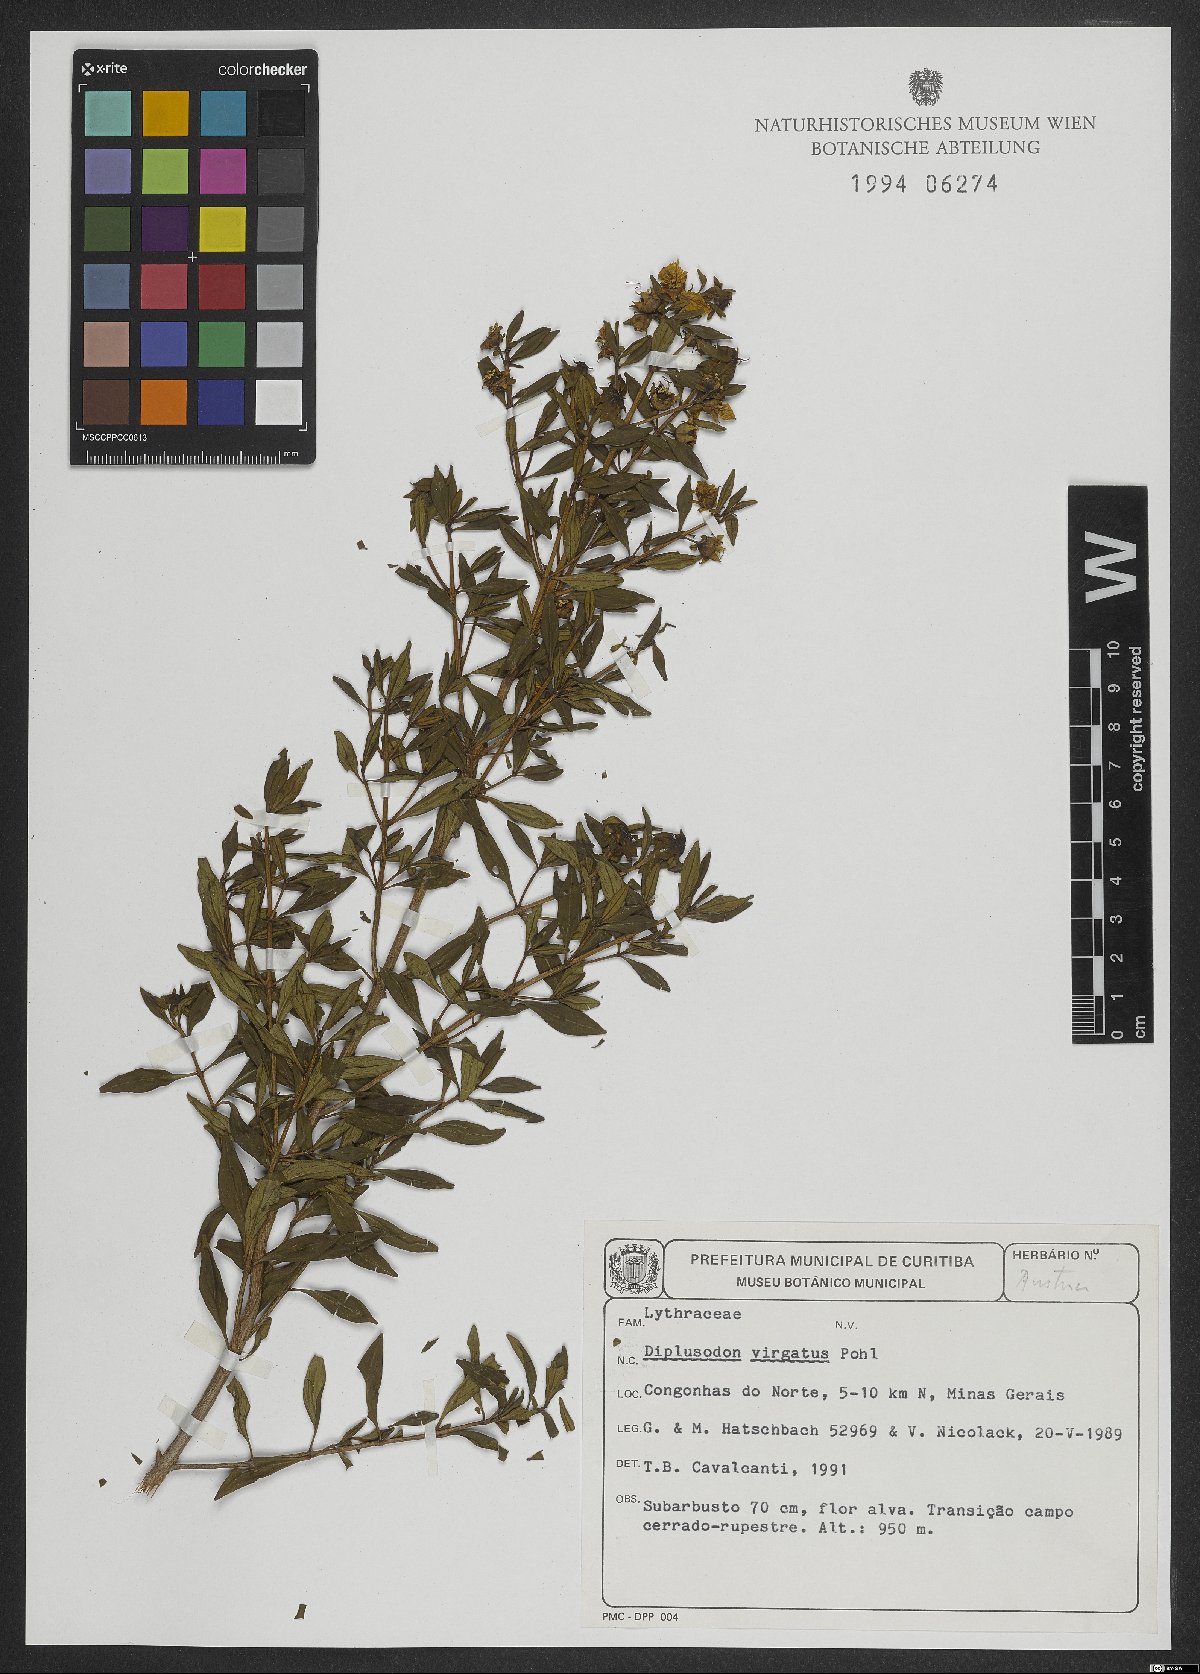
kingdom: Plantae
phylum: Tracheophyta
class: Magnoliopsida
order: Myrtales
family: Lythraceae
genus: Diplusodon
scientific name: Diplusodon virgatus
